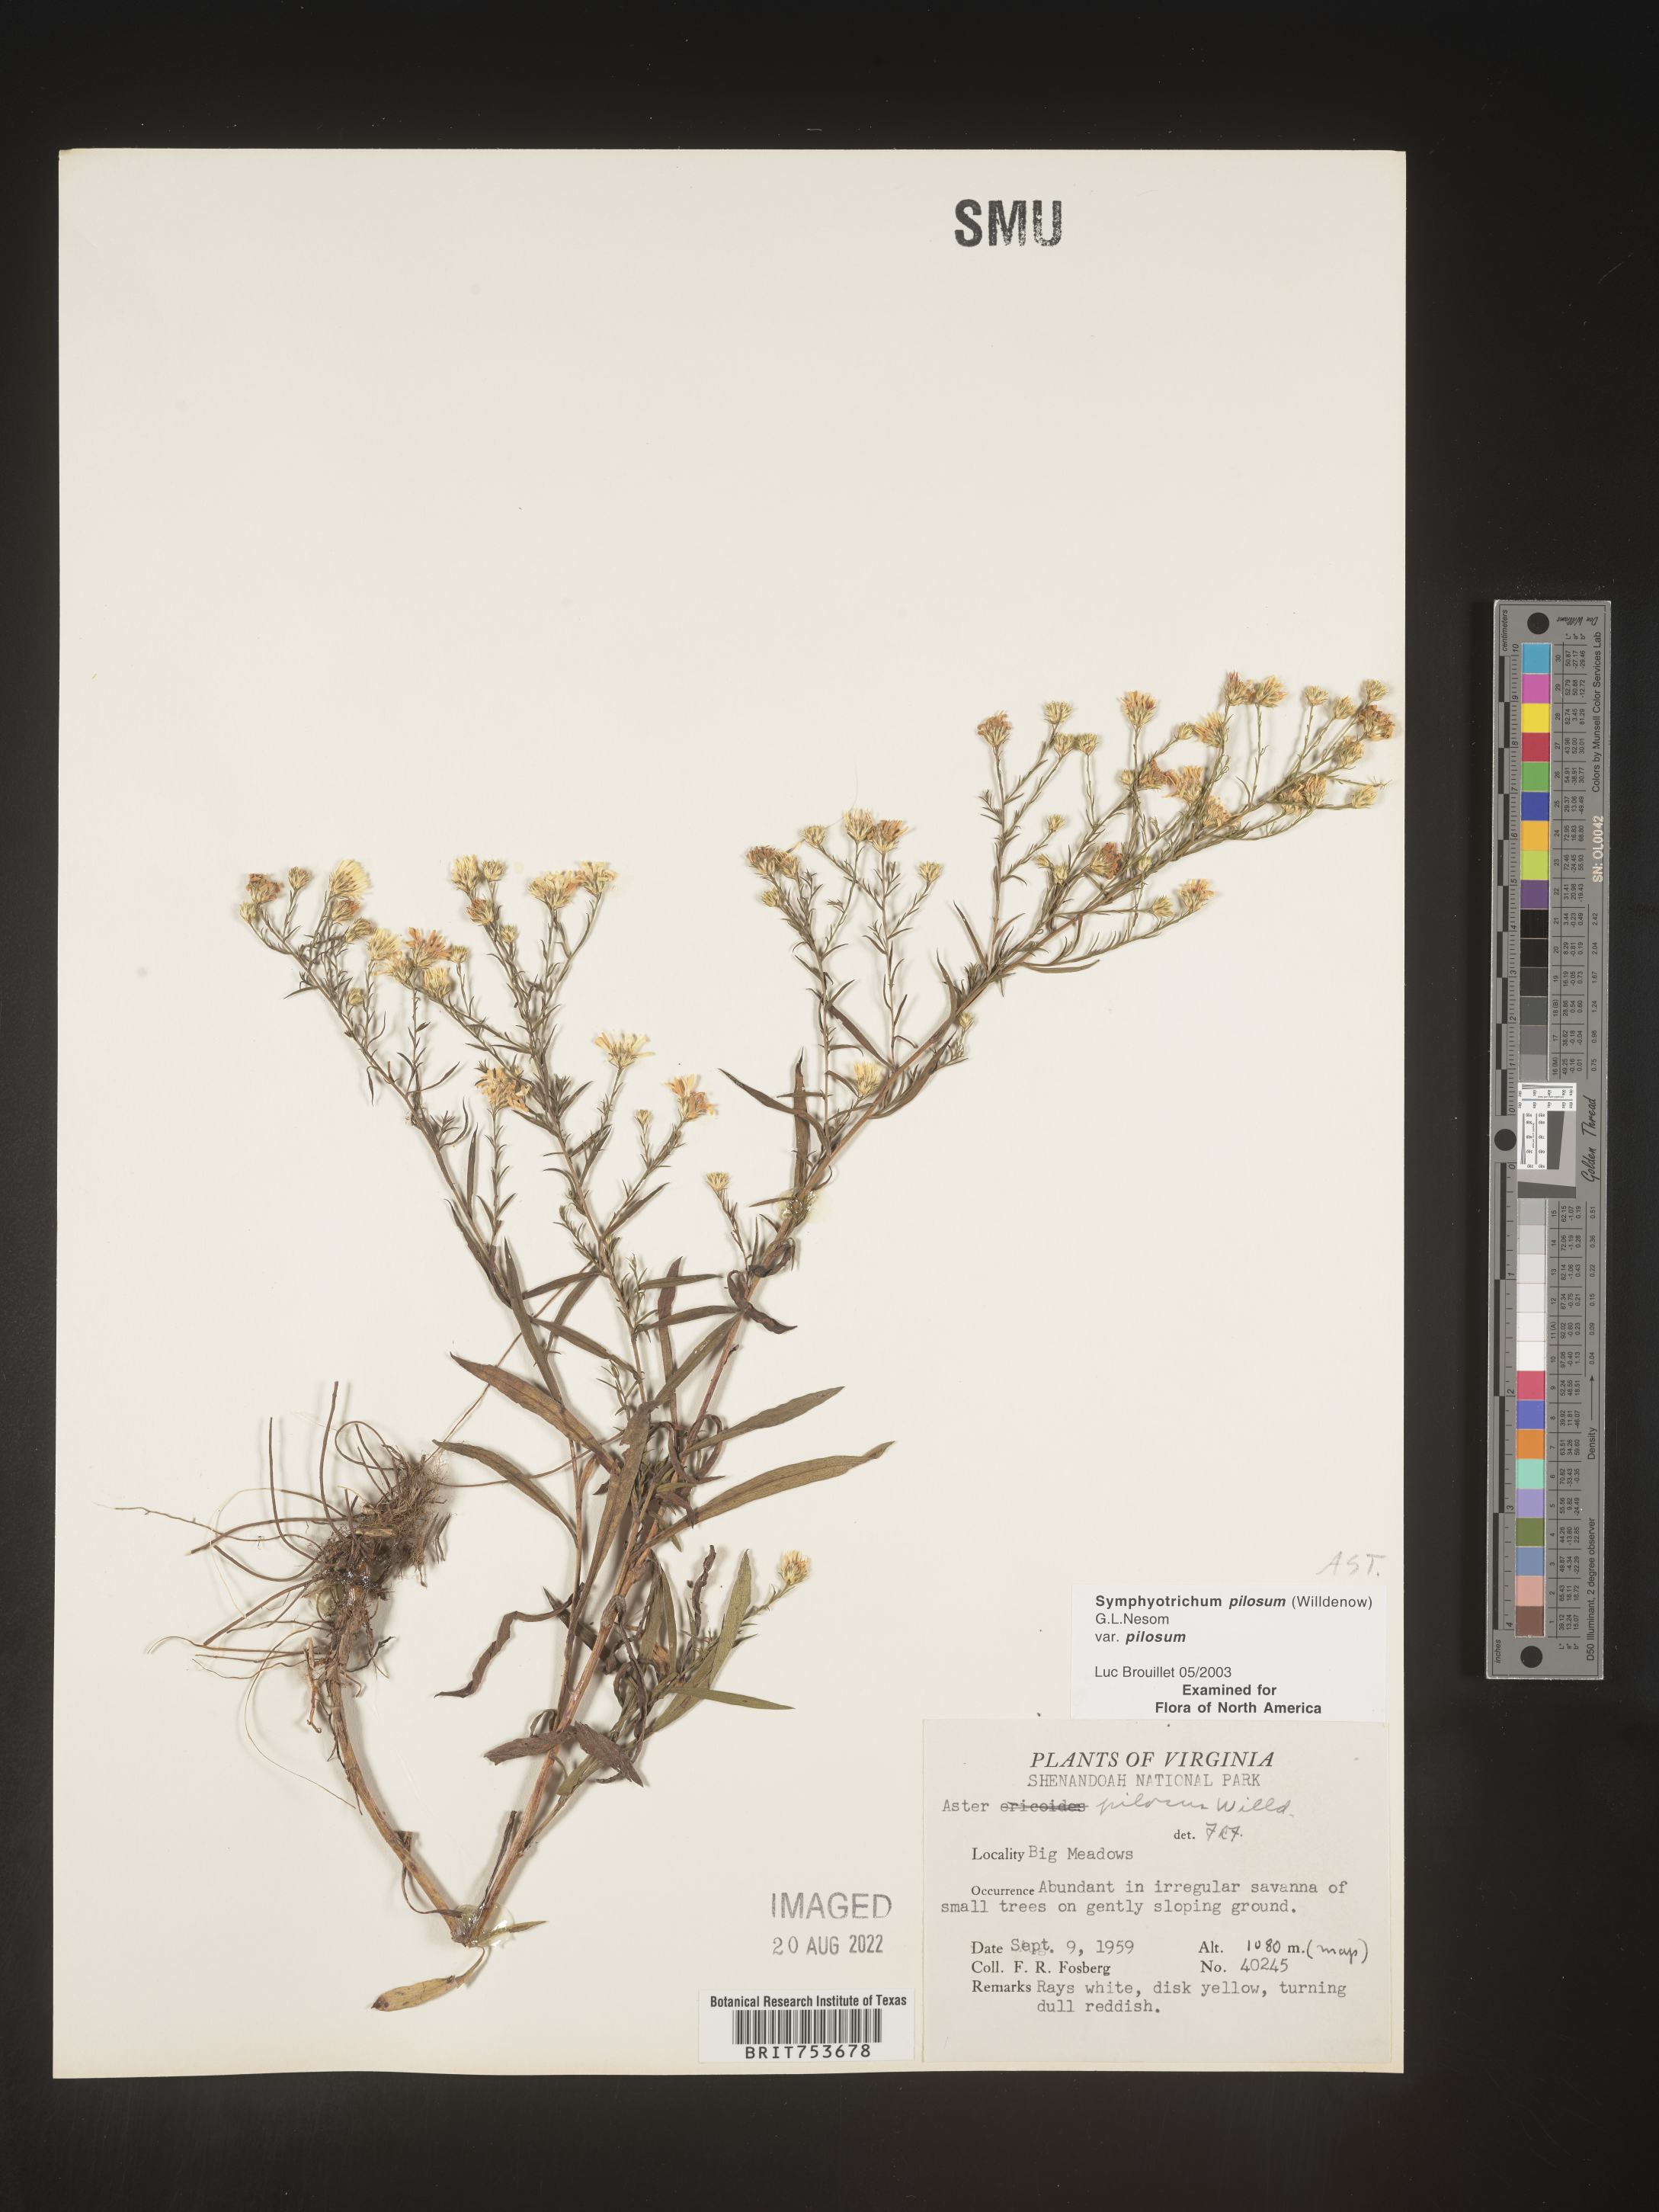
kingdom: Plantae
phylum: Tracheophyta
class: Magnoliopsida
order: Asterales
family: Asteraceae
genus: Symphyotrichum
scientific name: Symphyotrichum pilosum
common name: Awl aster
